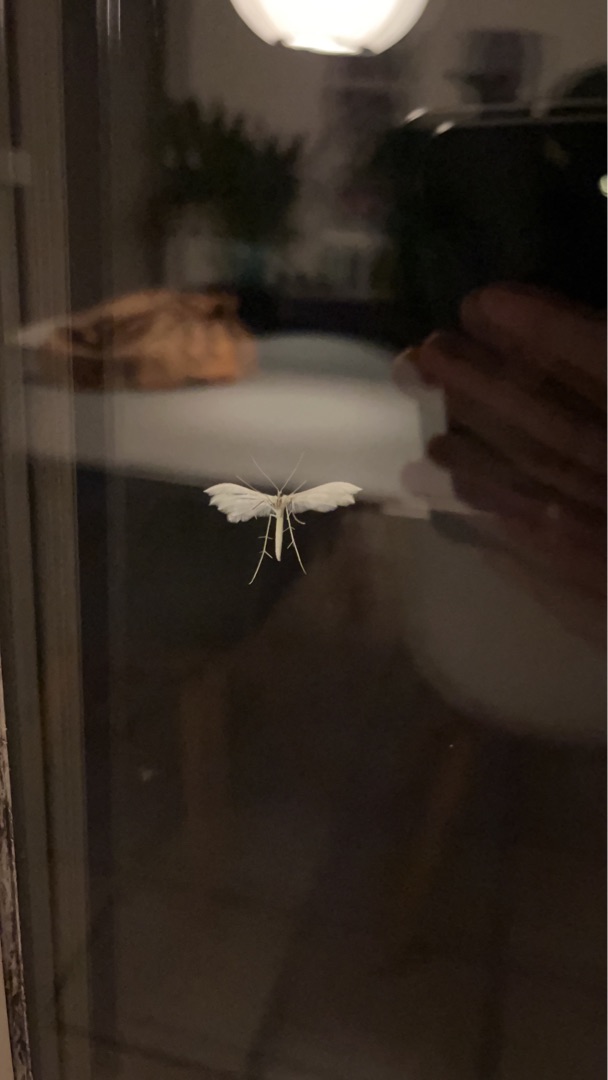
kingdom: Animalia
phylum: Arthropoda
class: Insecta
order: Lepidoptera
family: Pterophoridae
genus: Pterophorus
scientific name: Pterophorus pentadactyla
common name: Hvidt fjermøl
